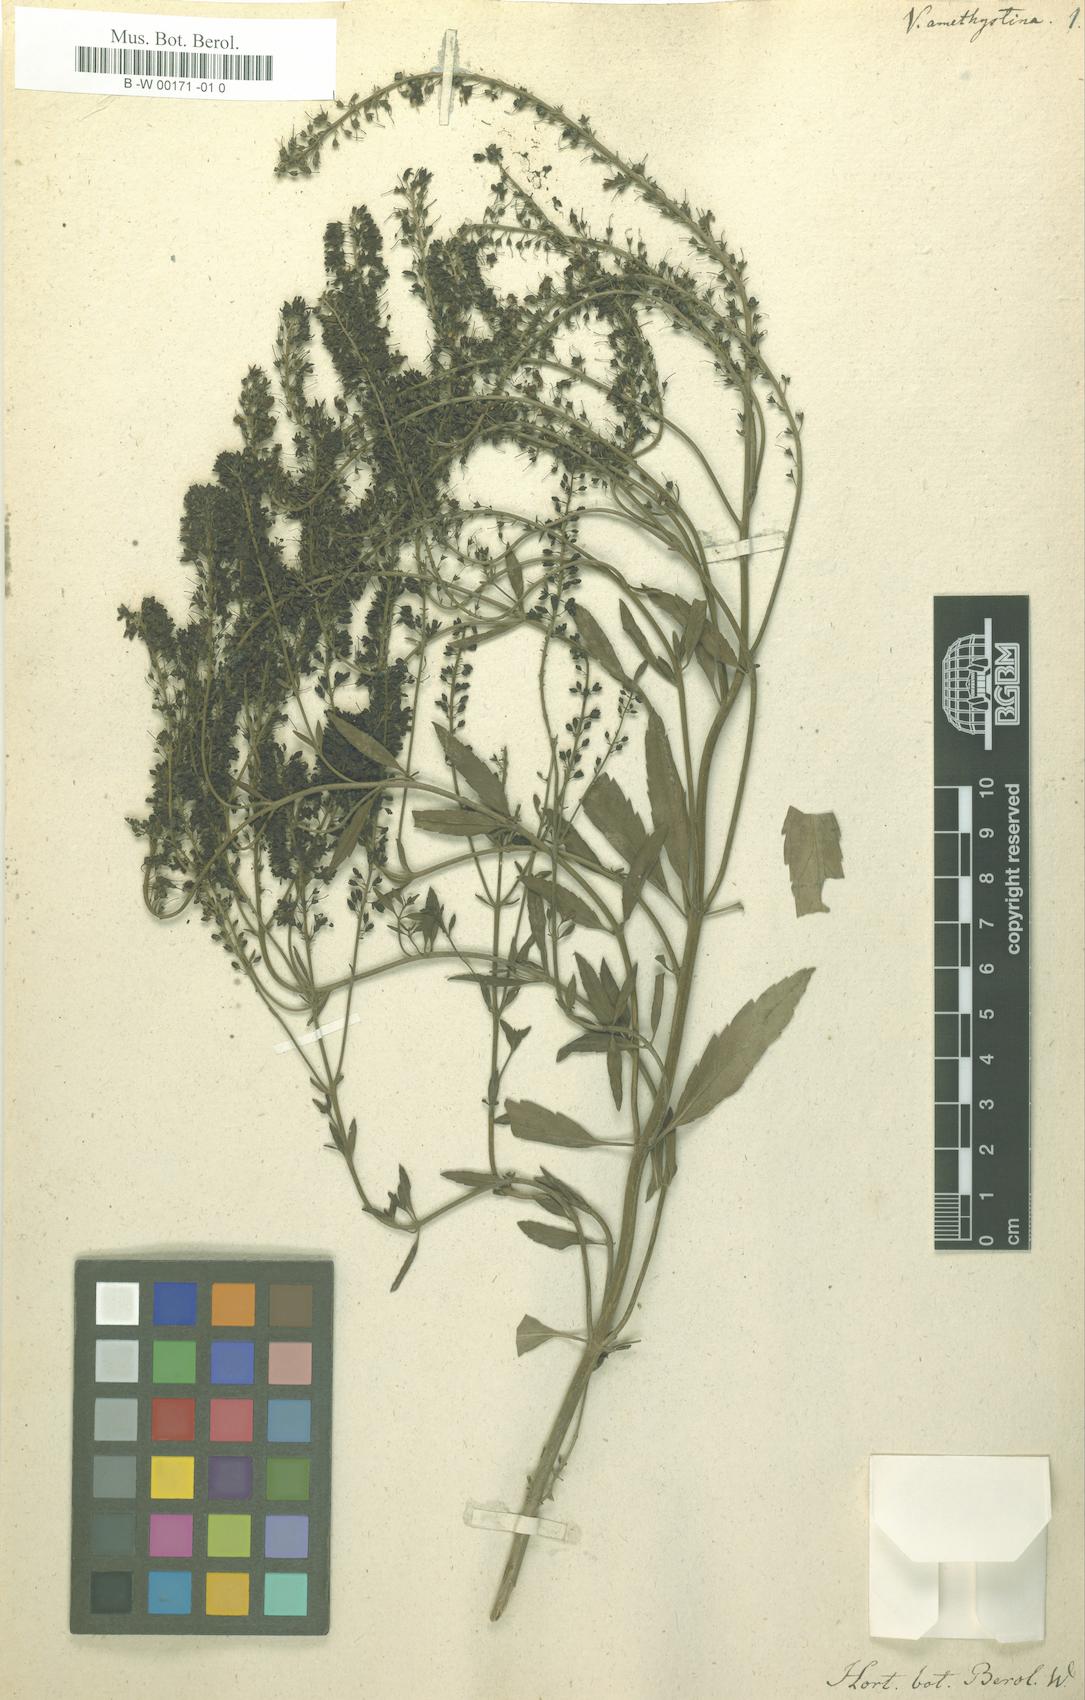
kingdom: Plantae
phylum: Tracheophyta
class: Magnoliopsida
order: Lamiales
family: Plantaginaceae
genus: Veronica
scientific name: Veronica spuria
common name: Bastard speedwell
